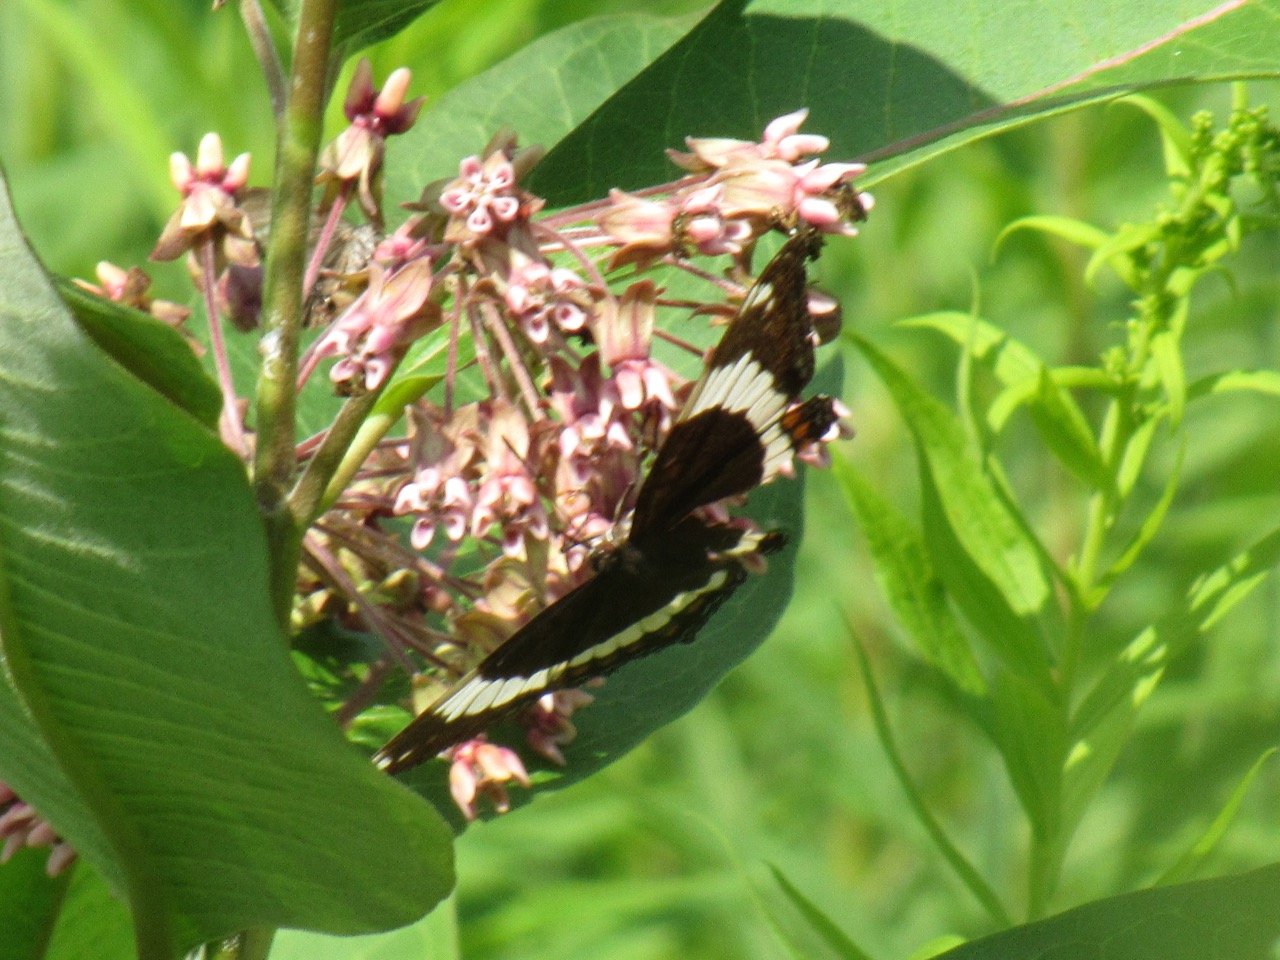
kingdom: Animalia
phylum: Arthropoda
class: Insecta
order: Lepidoptera
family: Nymphalidae
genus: Limenitis
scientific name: Limenitis arthemis
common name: Red-spotted Admiral
